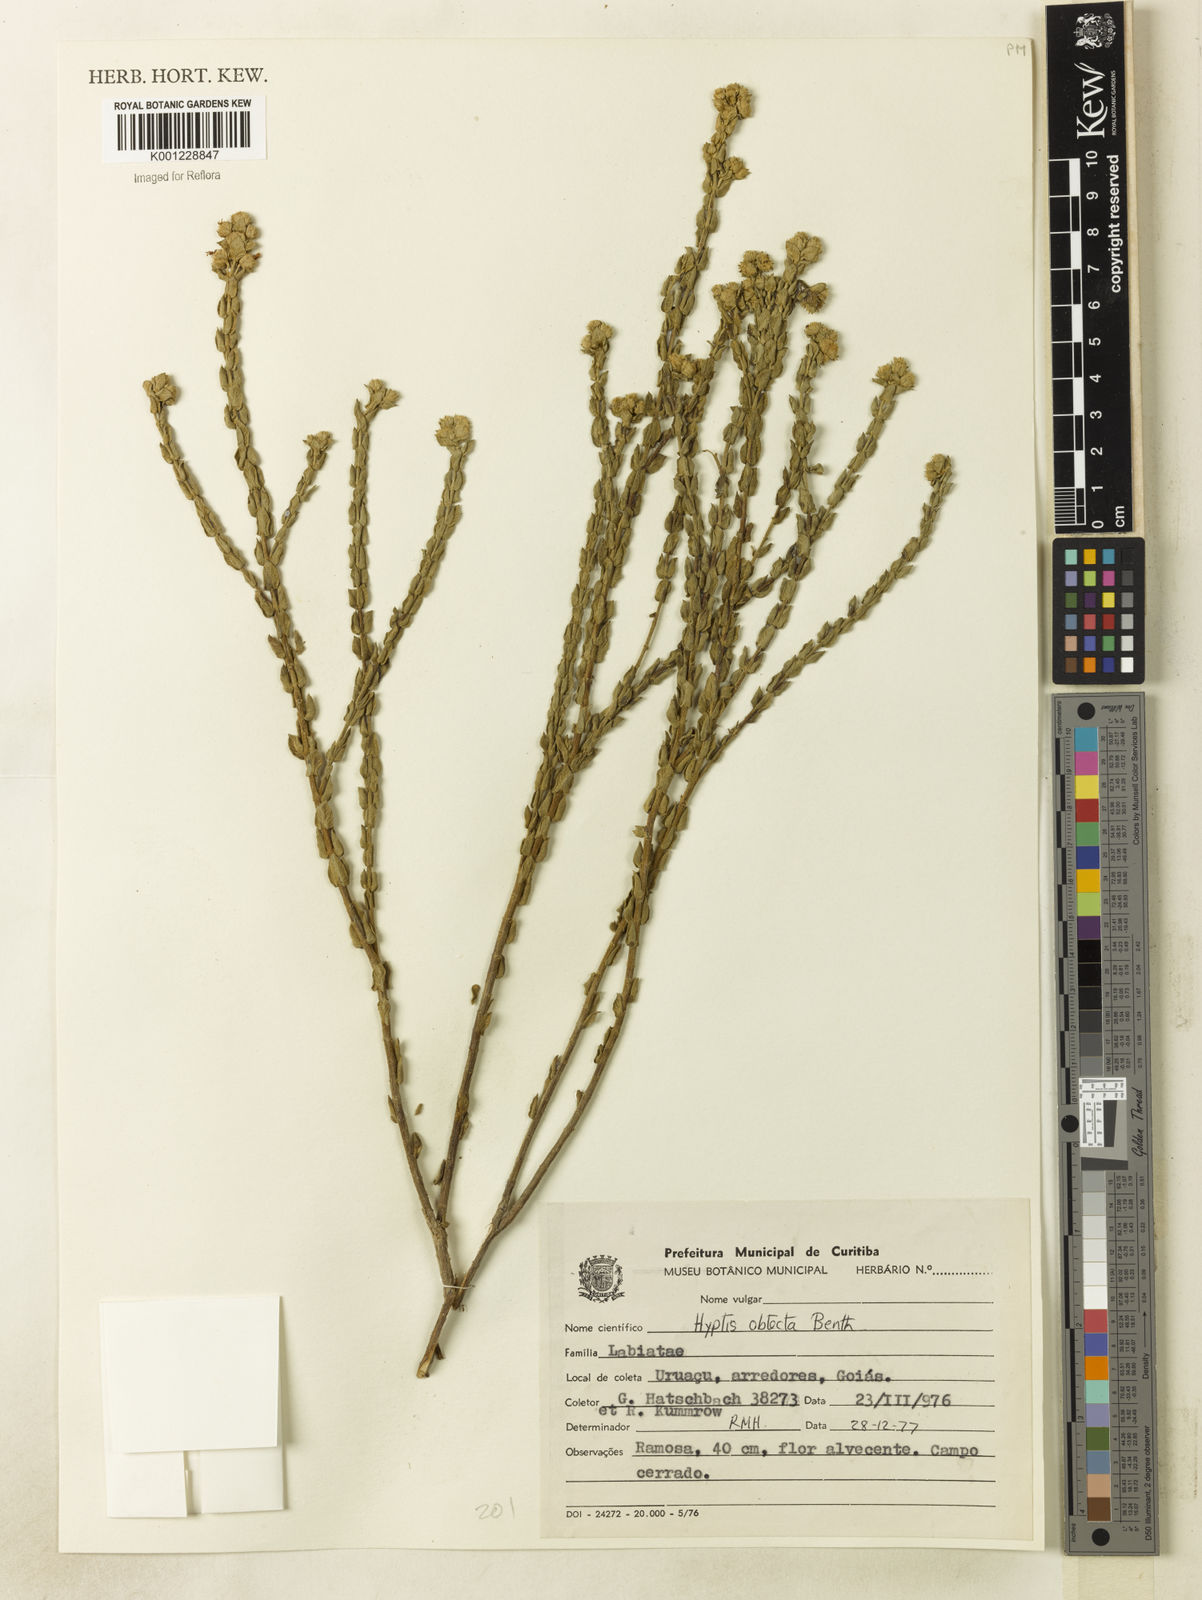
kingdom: Plantae
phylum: Tracheophyta
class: Magnoliopsida
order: Lamiales
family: Lamiaceae
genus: Hyptis
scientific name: Hyptis obtecta
